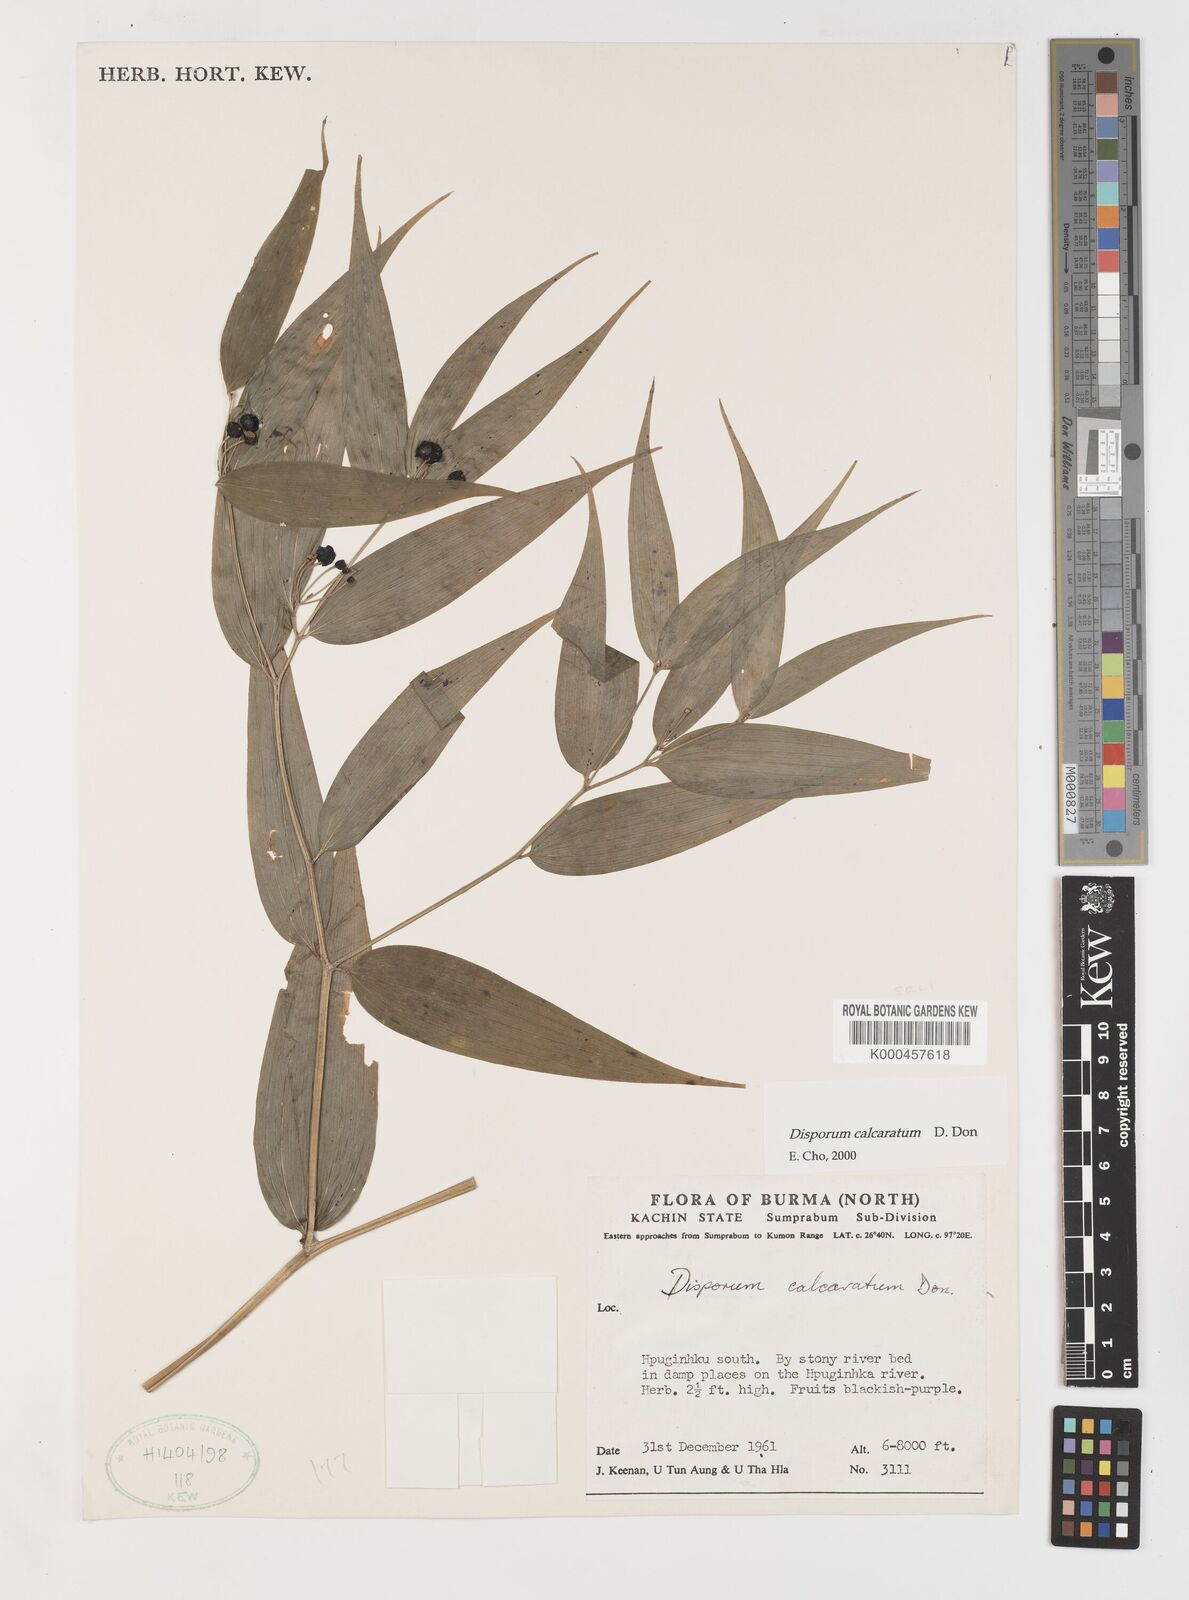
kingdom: Plantae
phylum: Tracheophyta
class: Liliopsida
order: Liliales
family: Colchicaceae
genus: Disporum
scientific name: Disporum calcaratum
